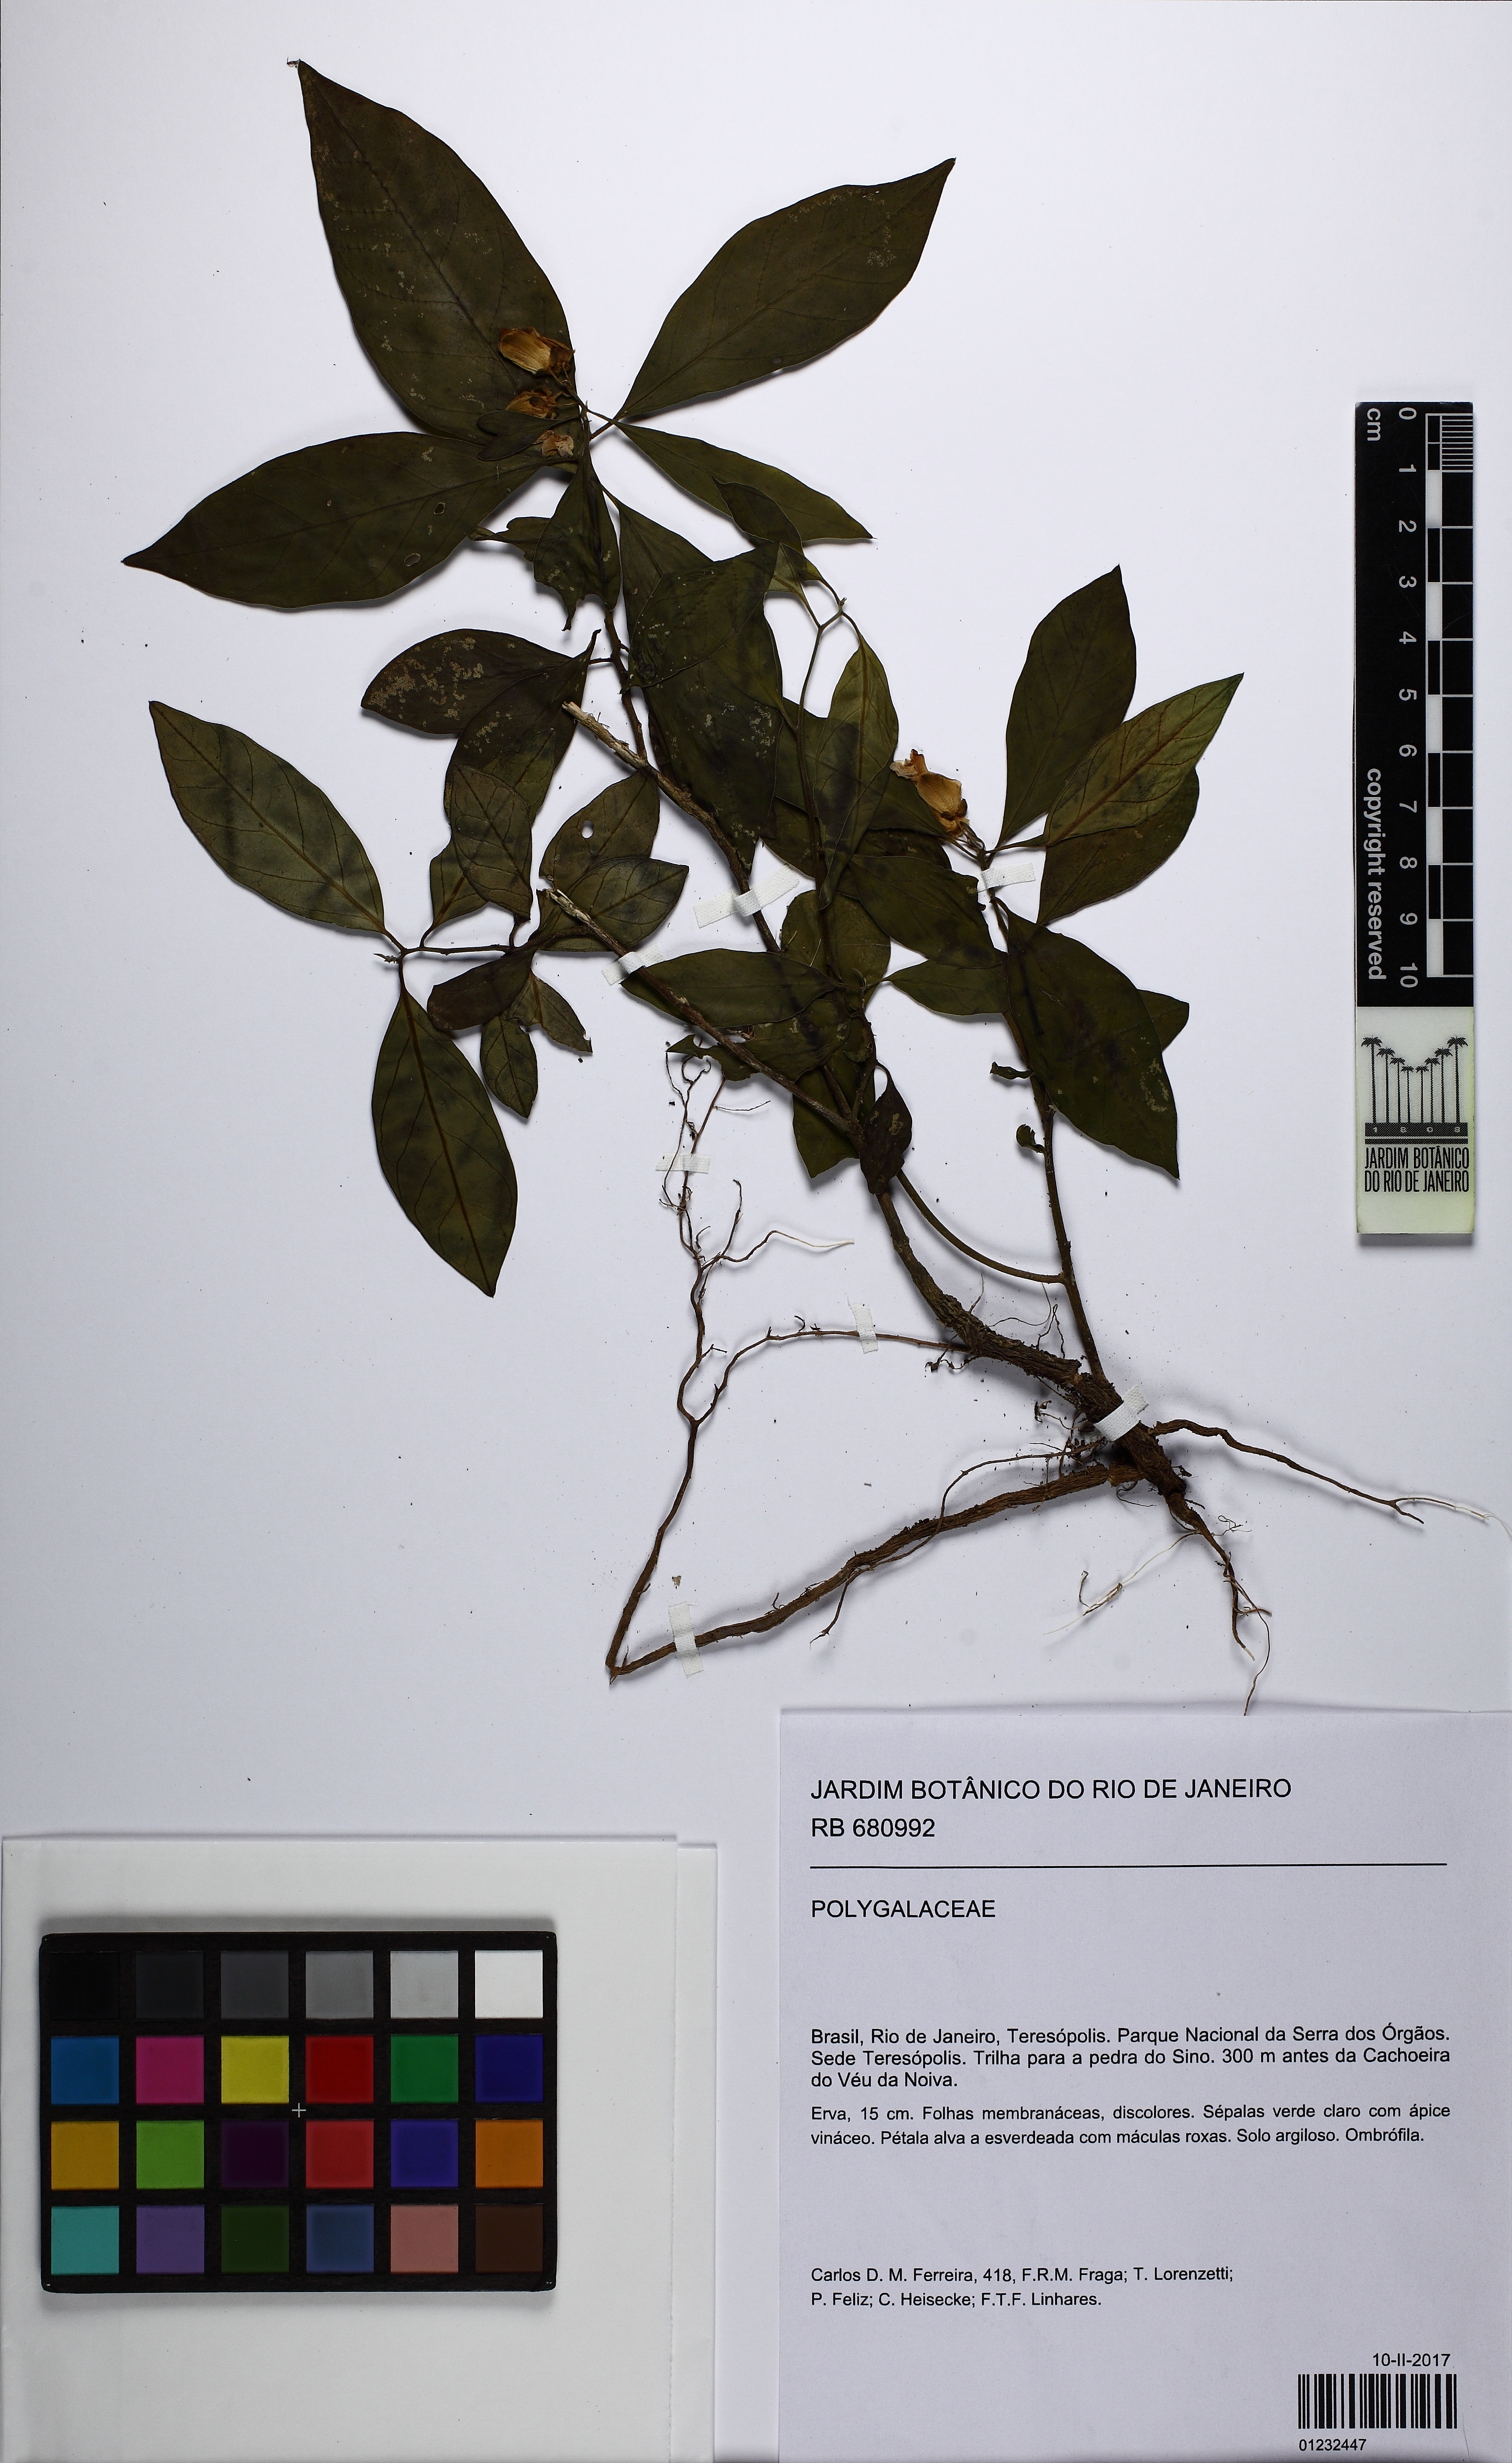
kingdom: Plantae
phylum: Tracheophyta
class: Magnoliopsida
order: Fabales
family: Polygalaceae
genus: Caamembeca
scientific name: Caamembeca
